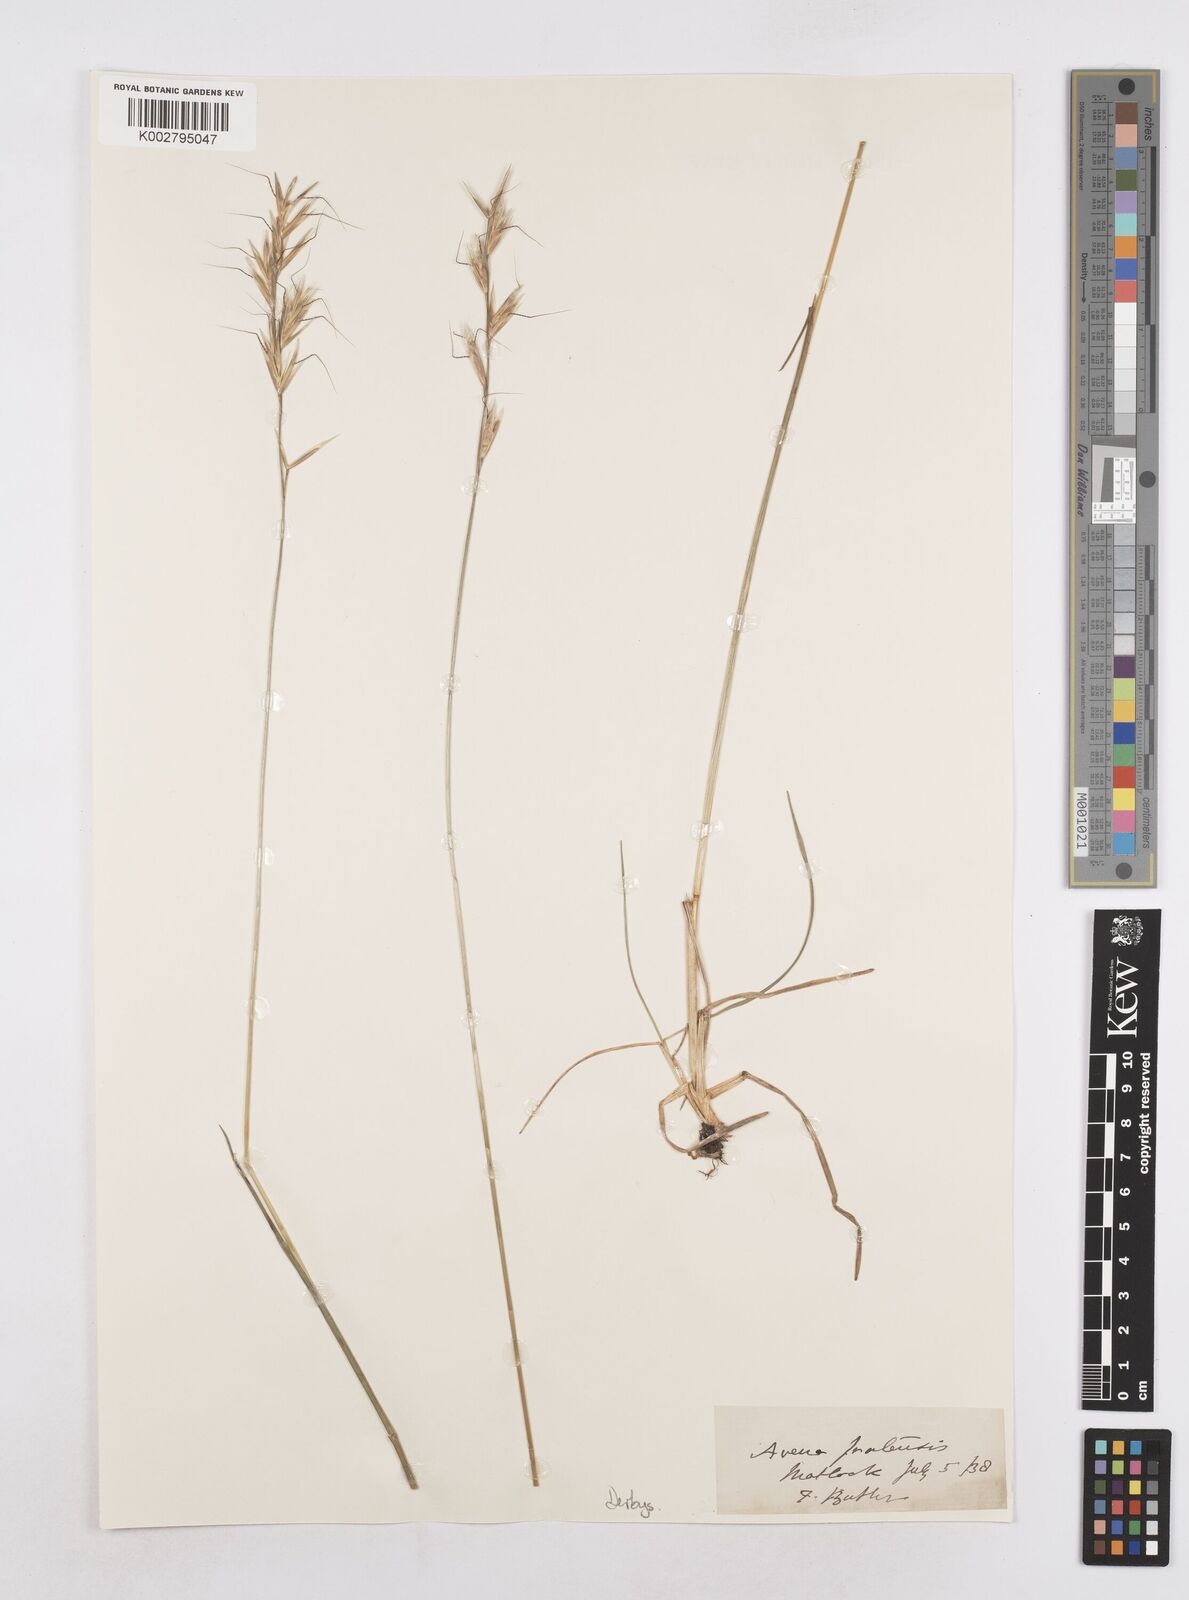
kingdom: Plantae
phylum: Tracheophyta
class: Liliopsida
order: Poales
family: Poaceae
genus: Helictochloa
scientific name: Helictochloa pratensis
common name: Meadow oat grass
